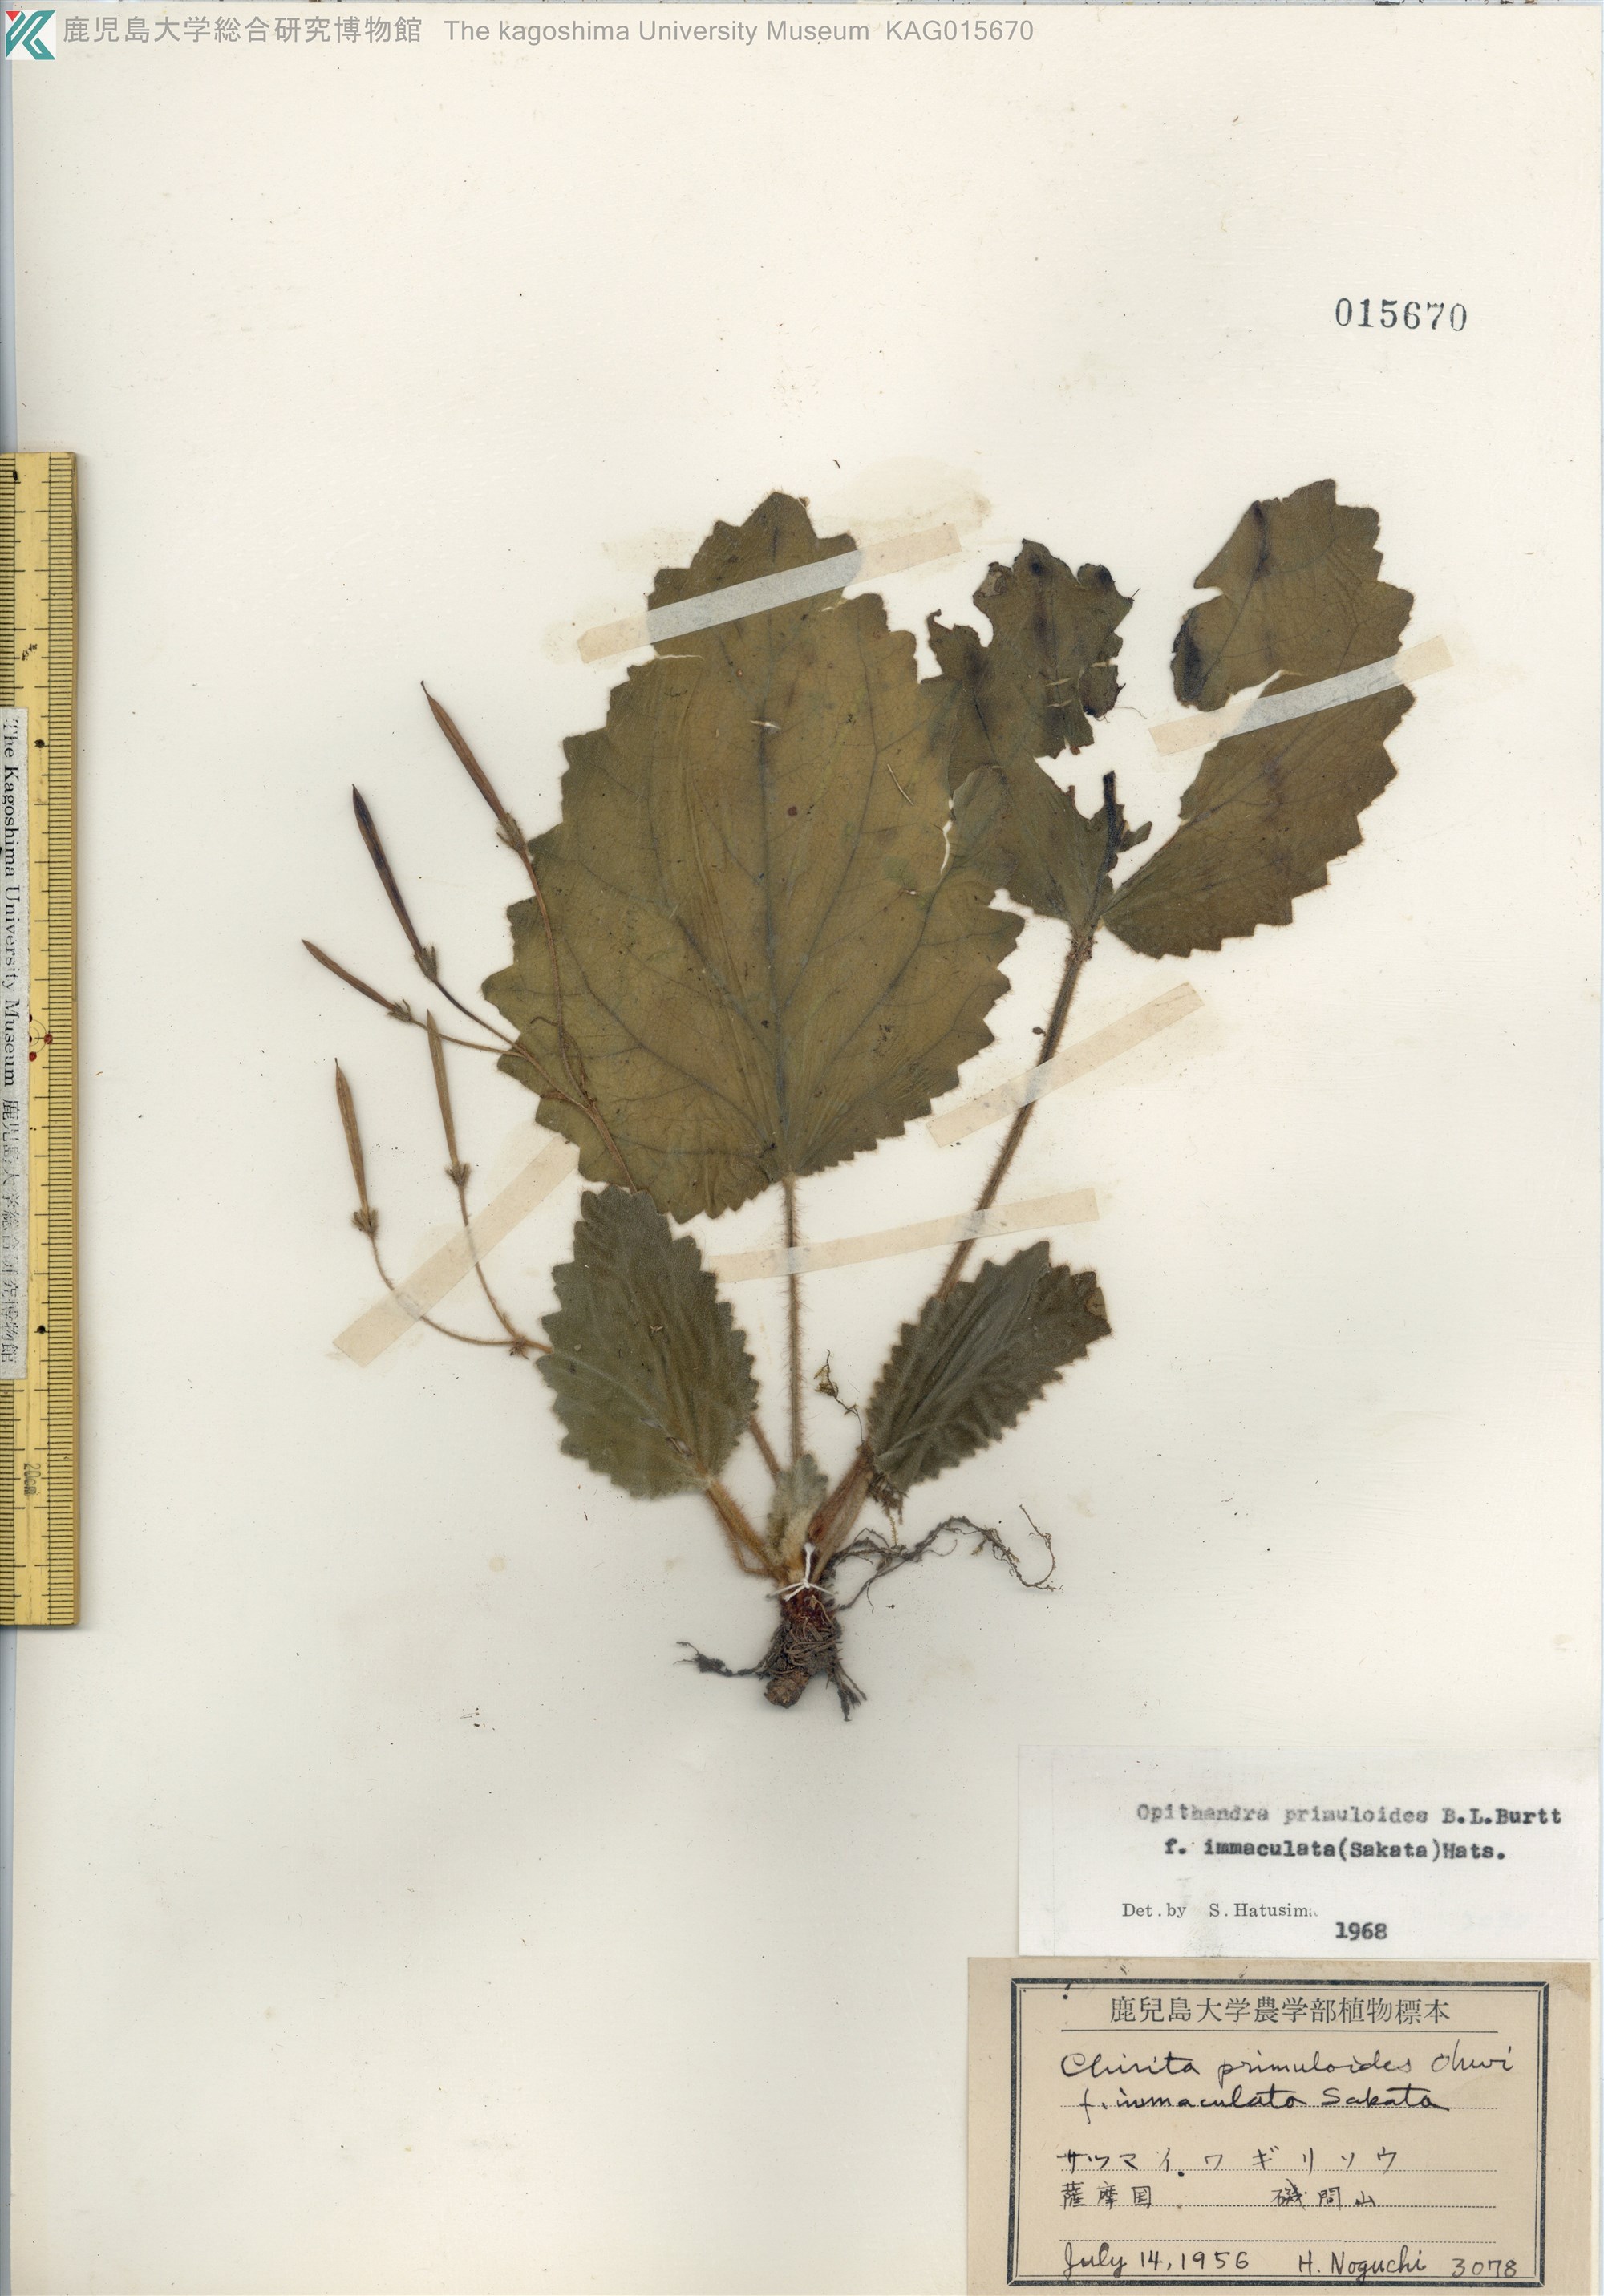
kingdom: Plantae
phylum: Tracheophyta
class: Magnoliopsida
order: Lamiales
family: Gesneriaceae
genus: Oreocharis
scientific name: Oreocharis primuloides
